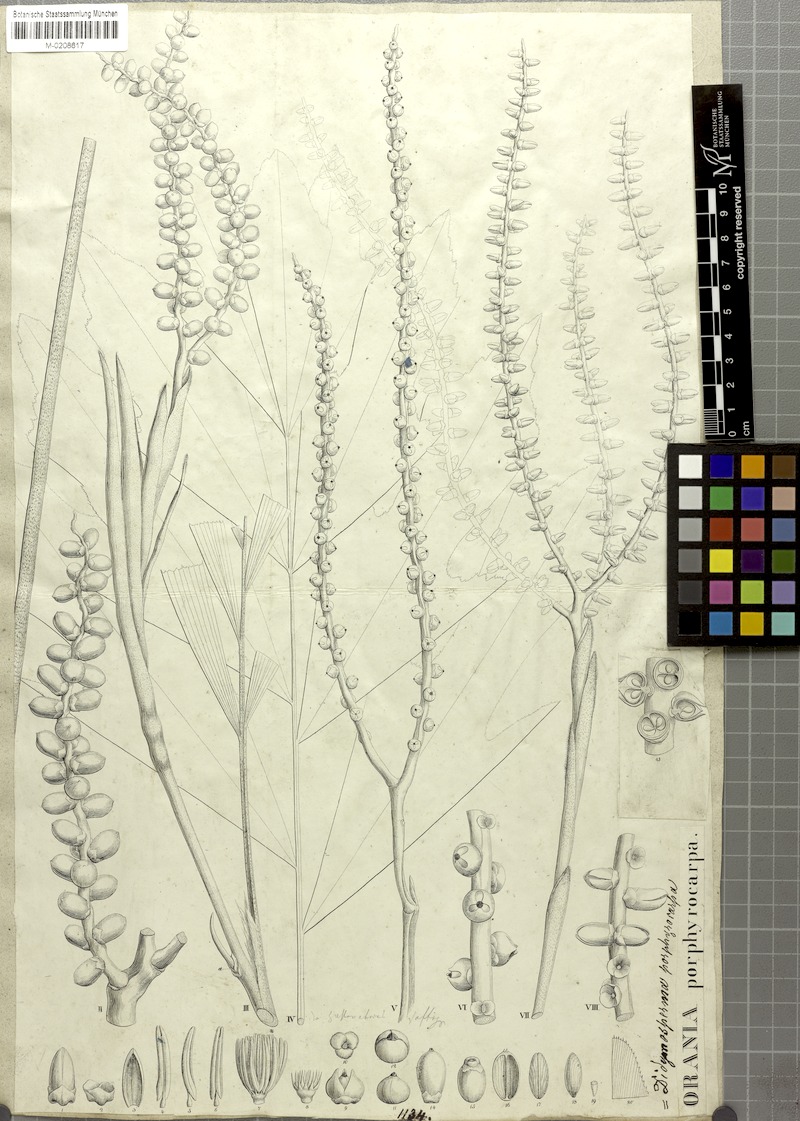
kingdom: Plantae
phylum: Tracheophyta
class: Liliopsida
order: Arecales
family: Arecaceae
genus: Arenga
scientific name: Arenga porphyrocarpa
